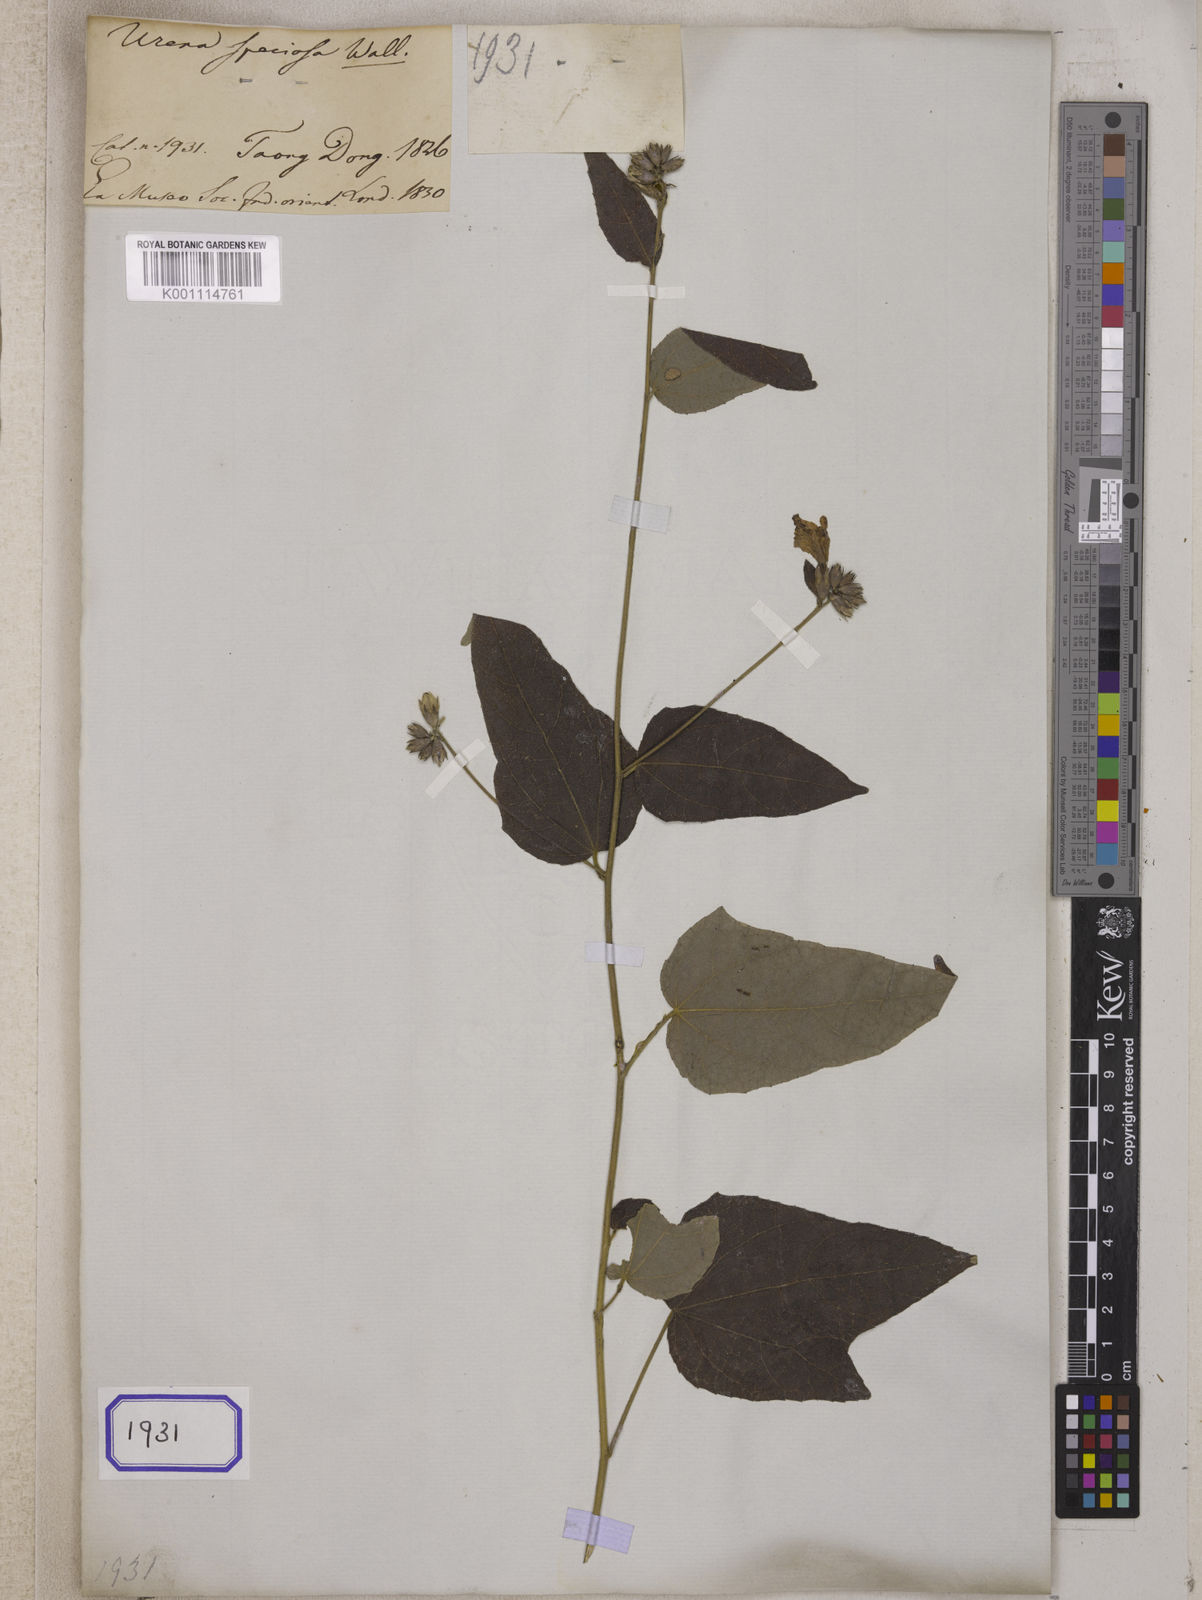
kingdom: Plantae
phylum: Tracheophyta
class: Magnoliopsida
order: Malvales
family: Malvaceae
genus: Urena
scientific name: Urena repanda
